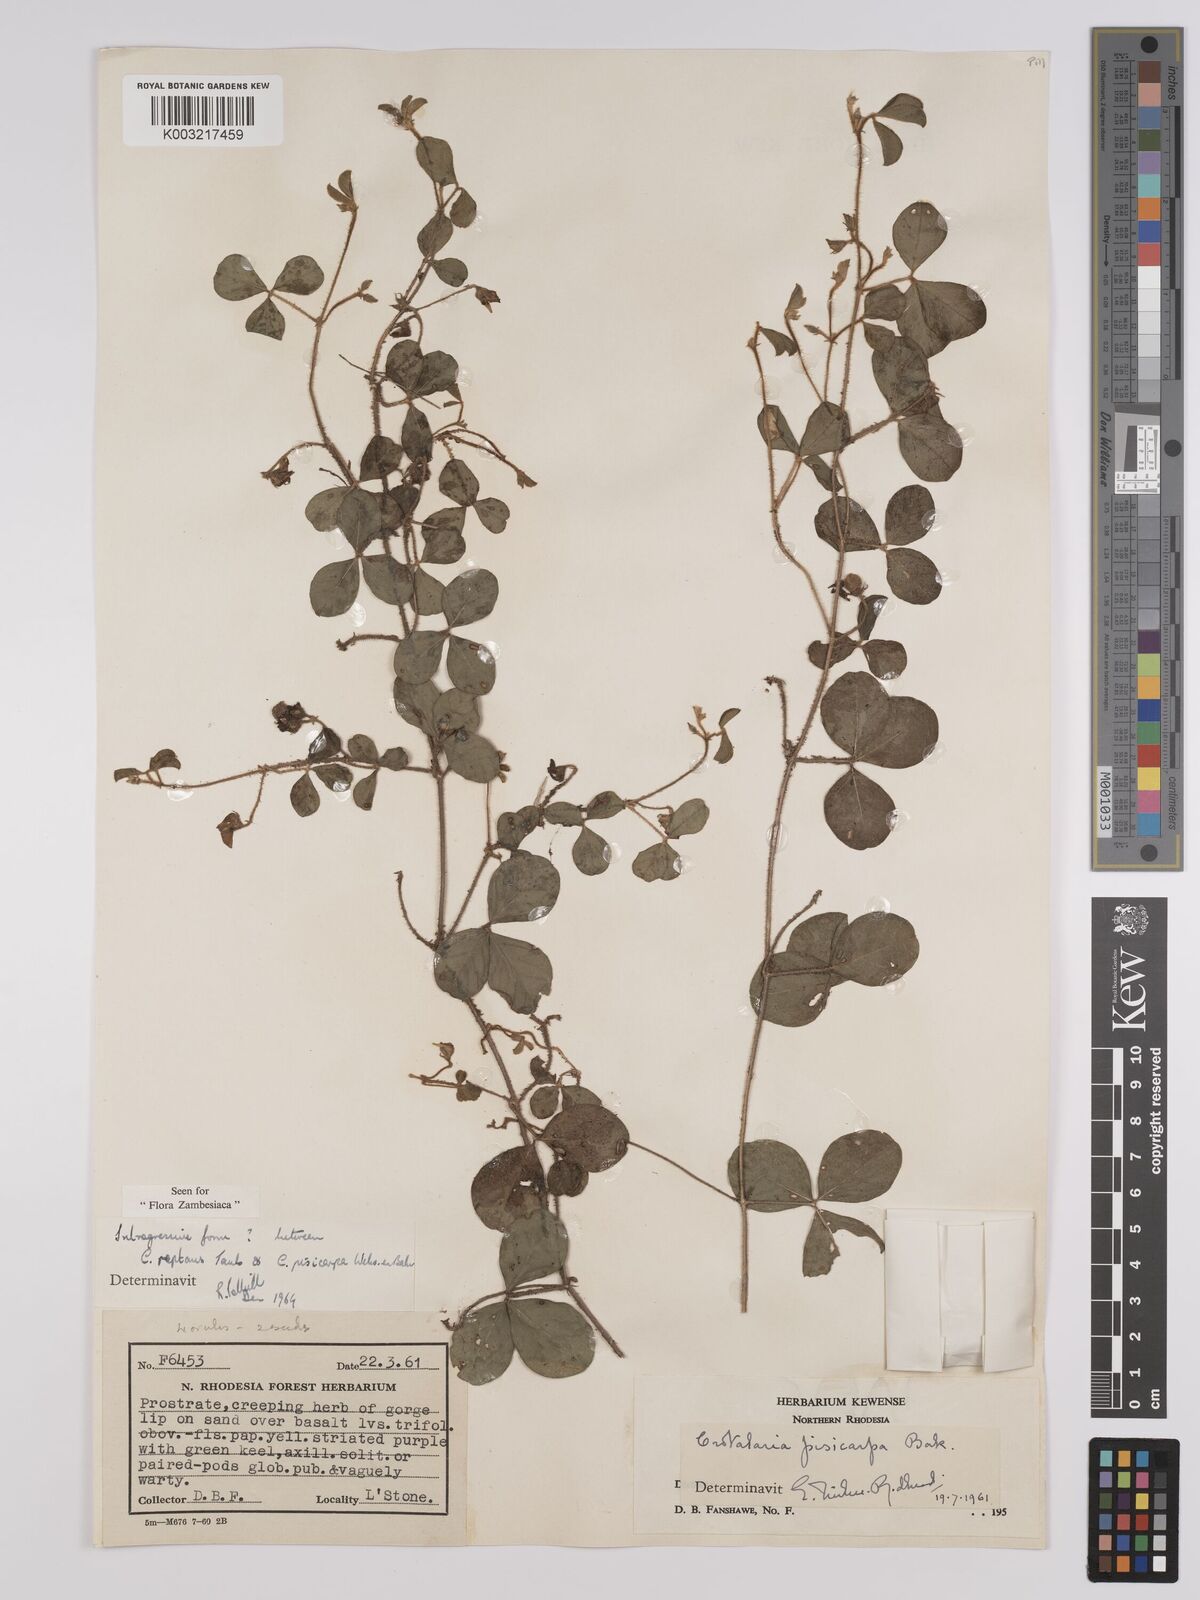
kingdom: Plantae
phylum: Tracheophyta
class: Magnoliopsida
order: Fabales
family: Fabaceae
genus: Crotalaria
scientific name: Crotalaria reptans
